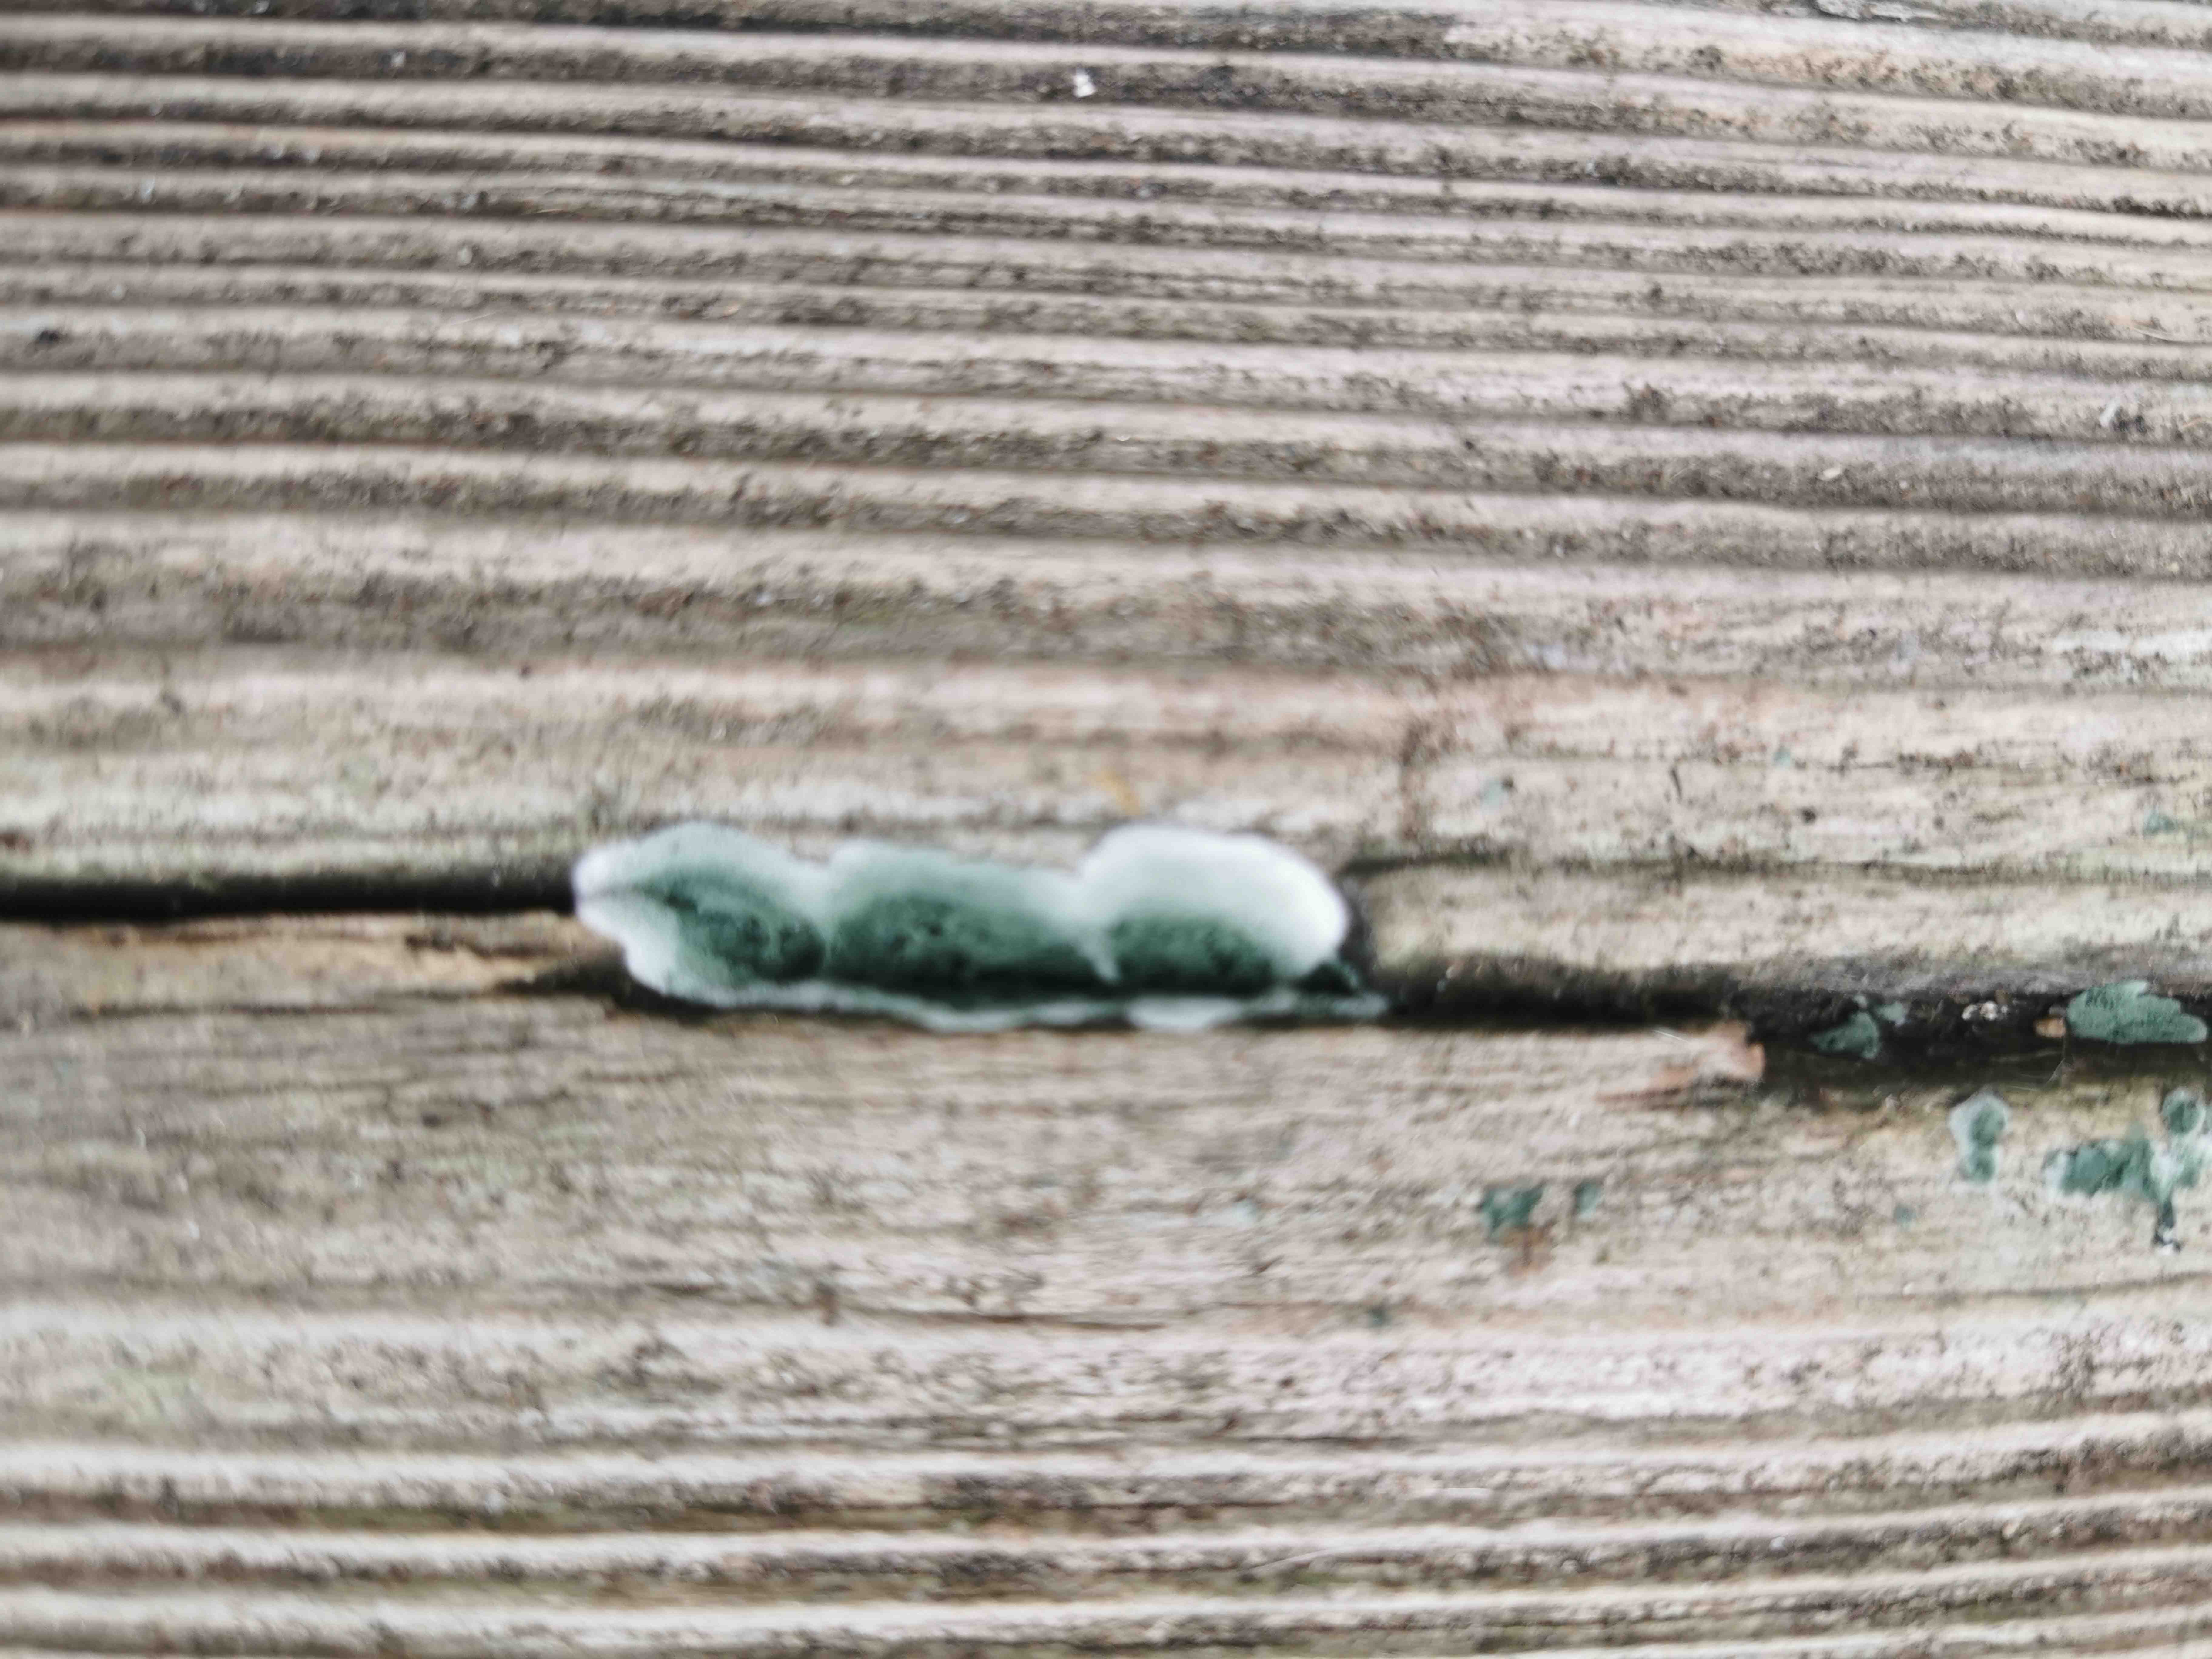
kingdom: Fungi
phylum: Ascomycota
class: Sordariomycetes
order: Hypocreales
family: Hypocreaceae
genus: Trichoderma
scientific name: Trichoderma
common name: kødkerne
